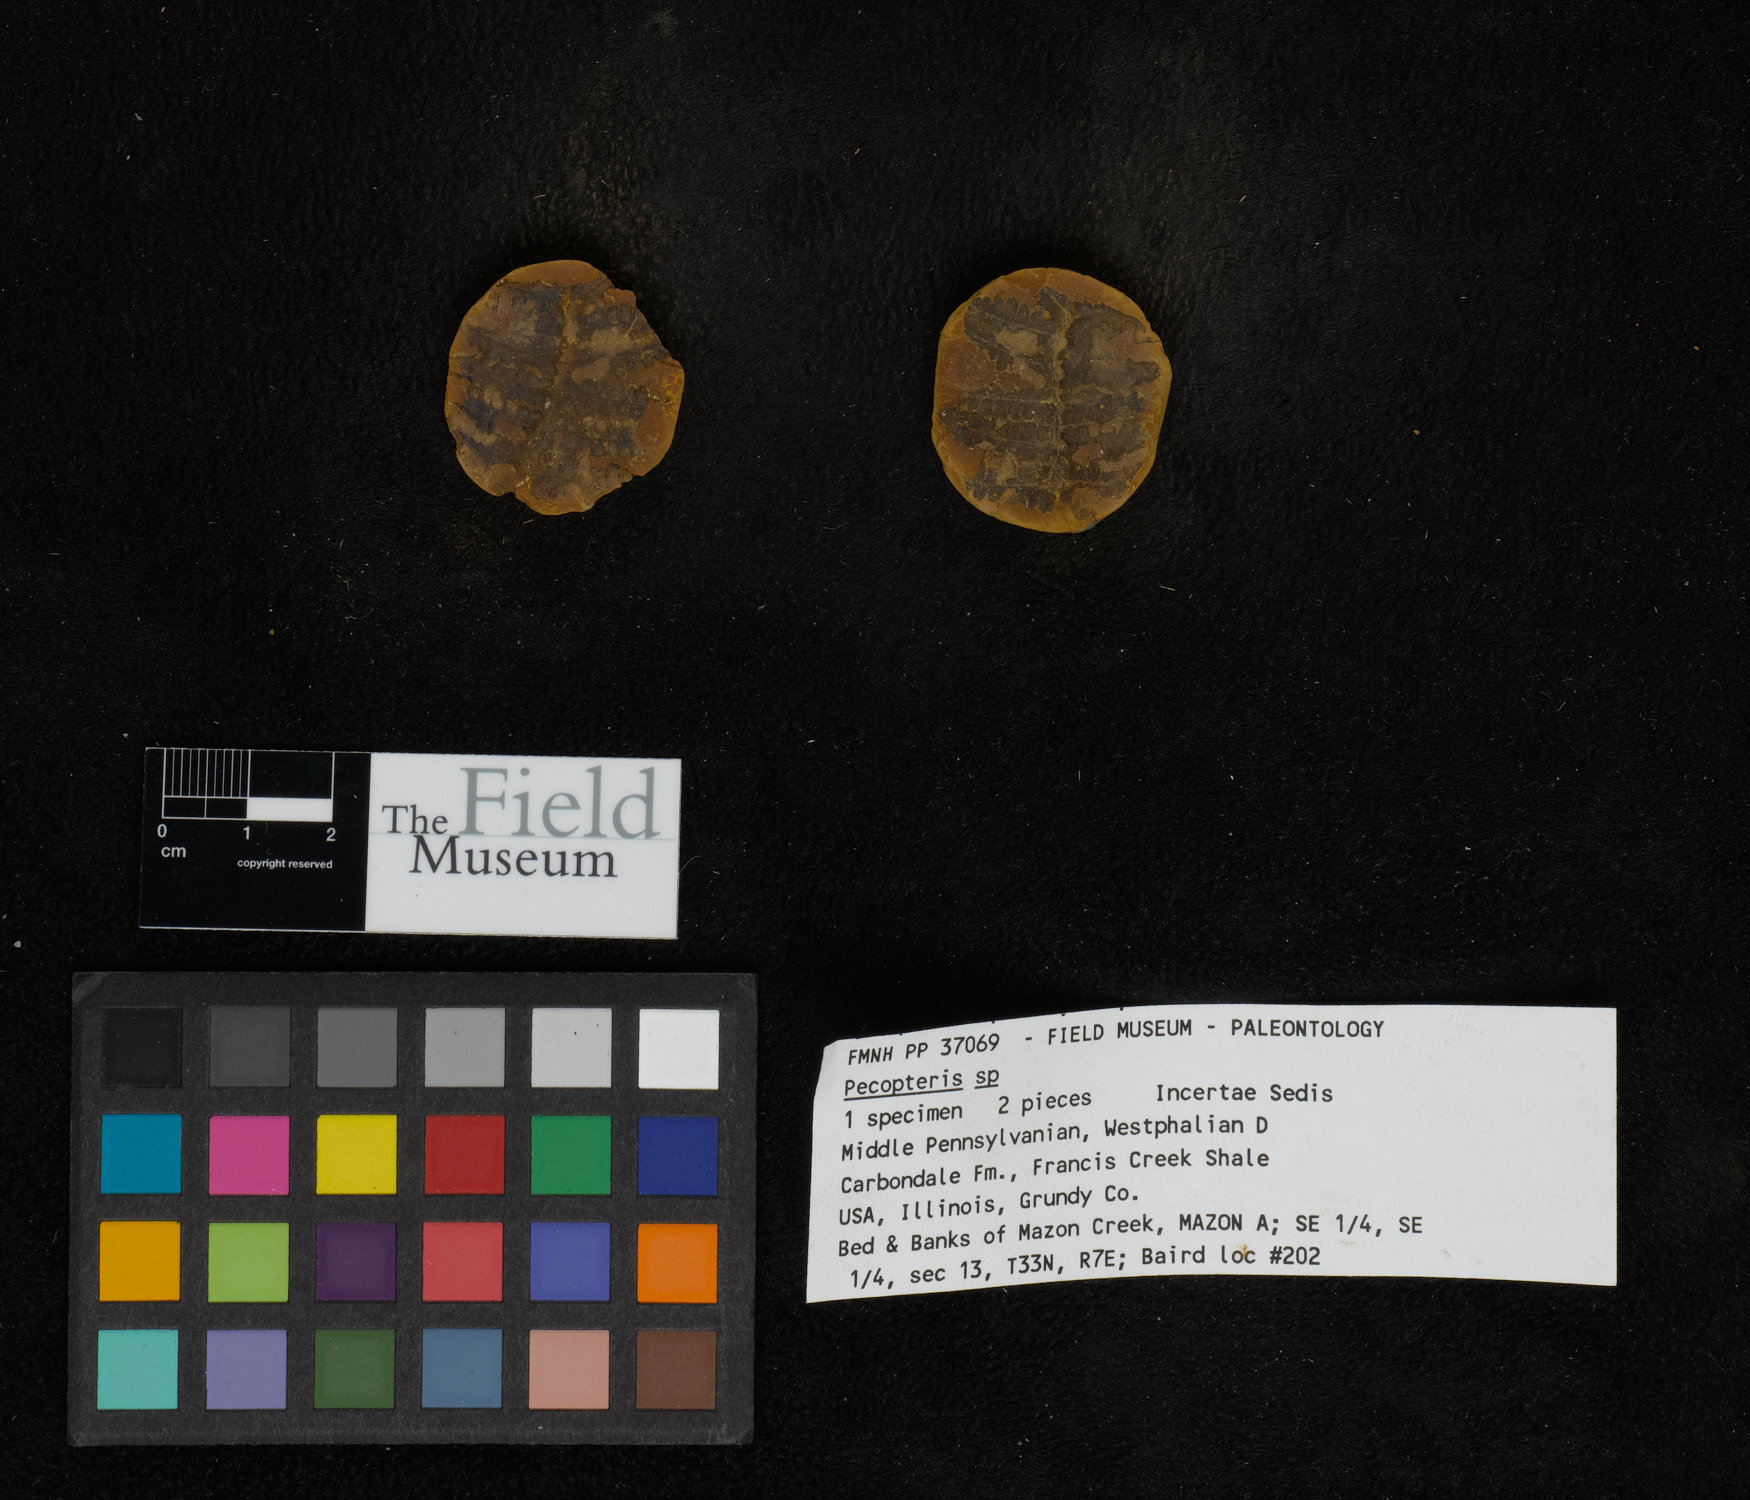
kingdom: Plantae
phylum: Tracheophyta
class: Polypodiopsida
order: Marattiales
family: Asterothecaceae
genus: Pecopteris
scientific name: Pecopteris
